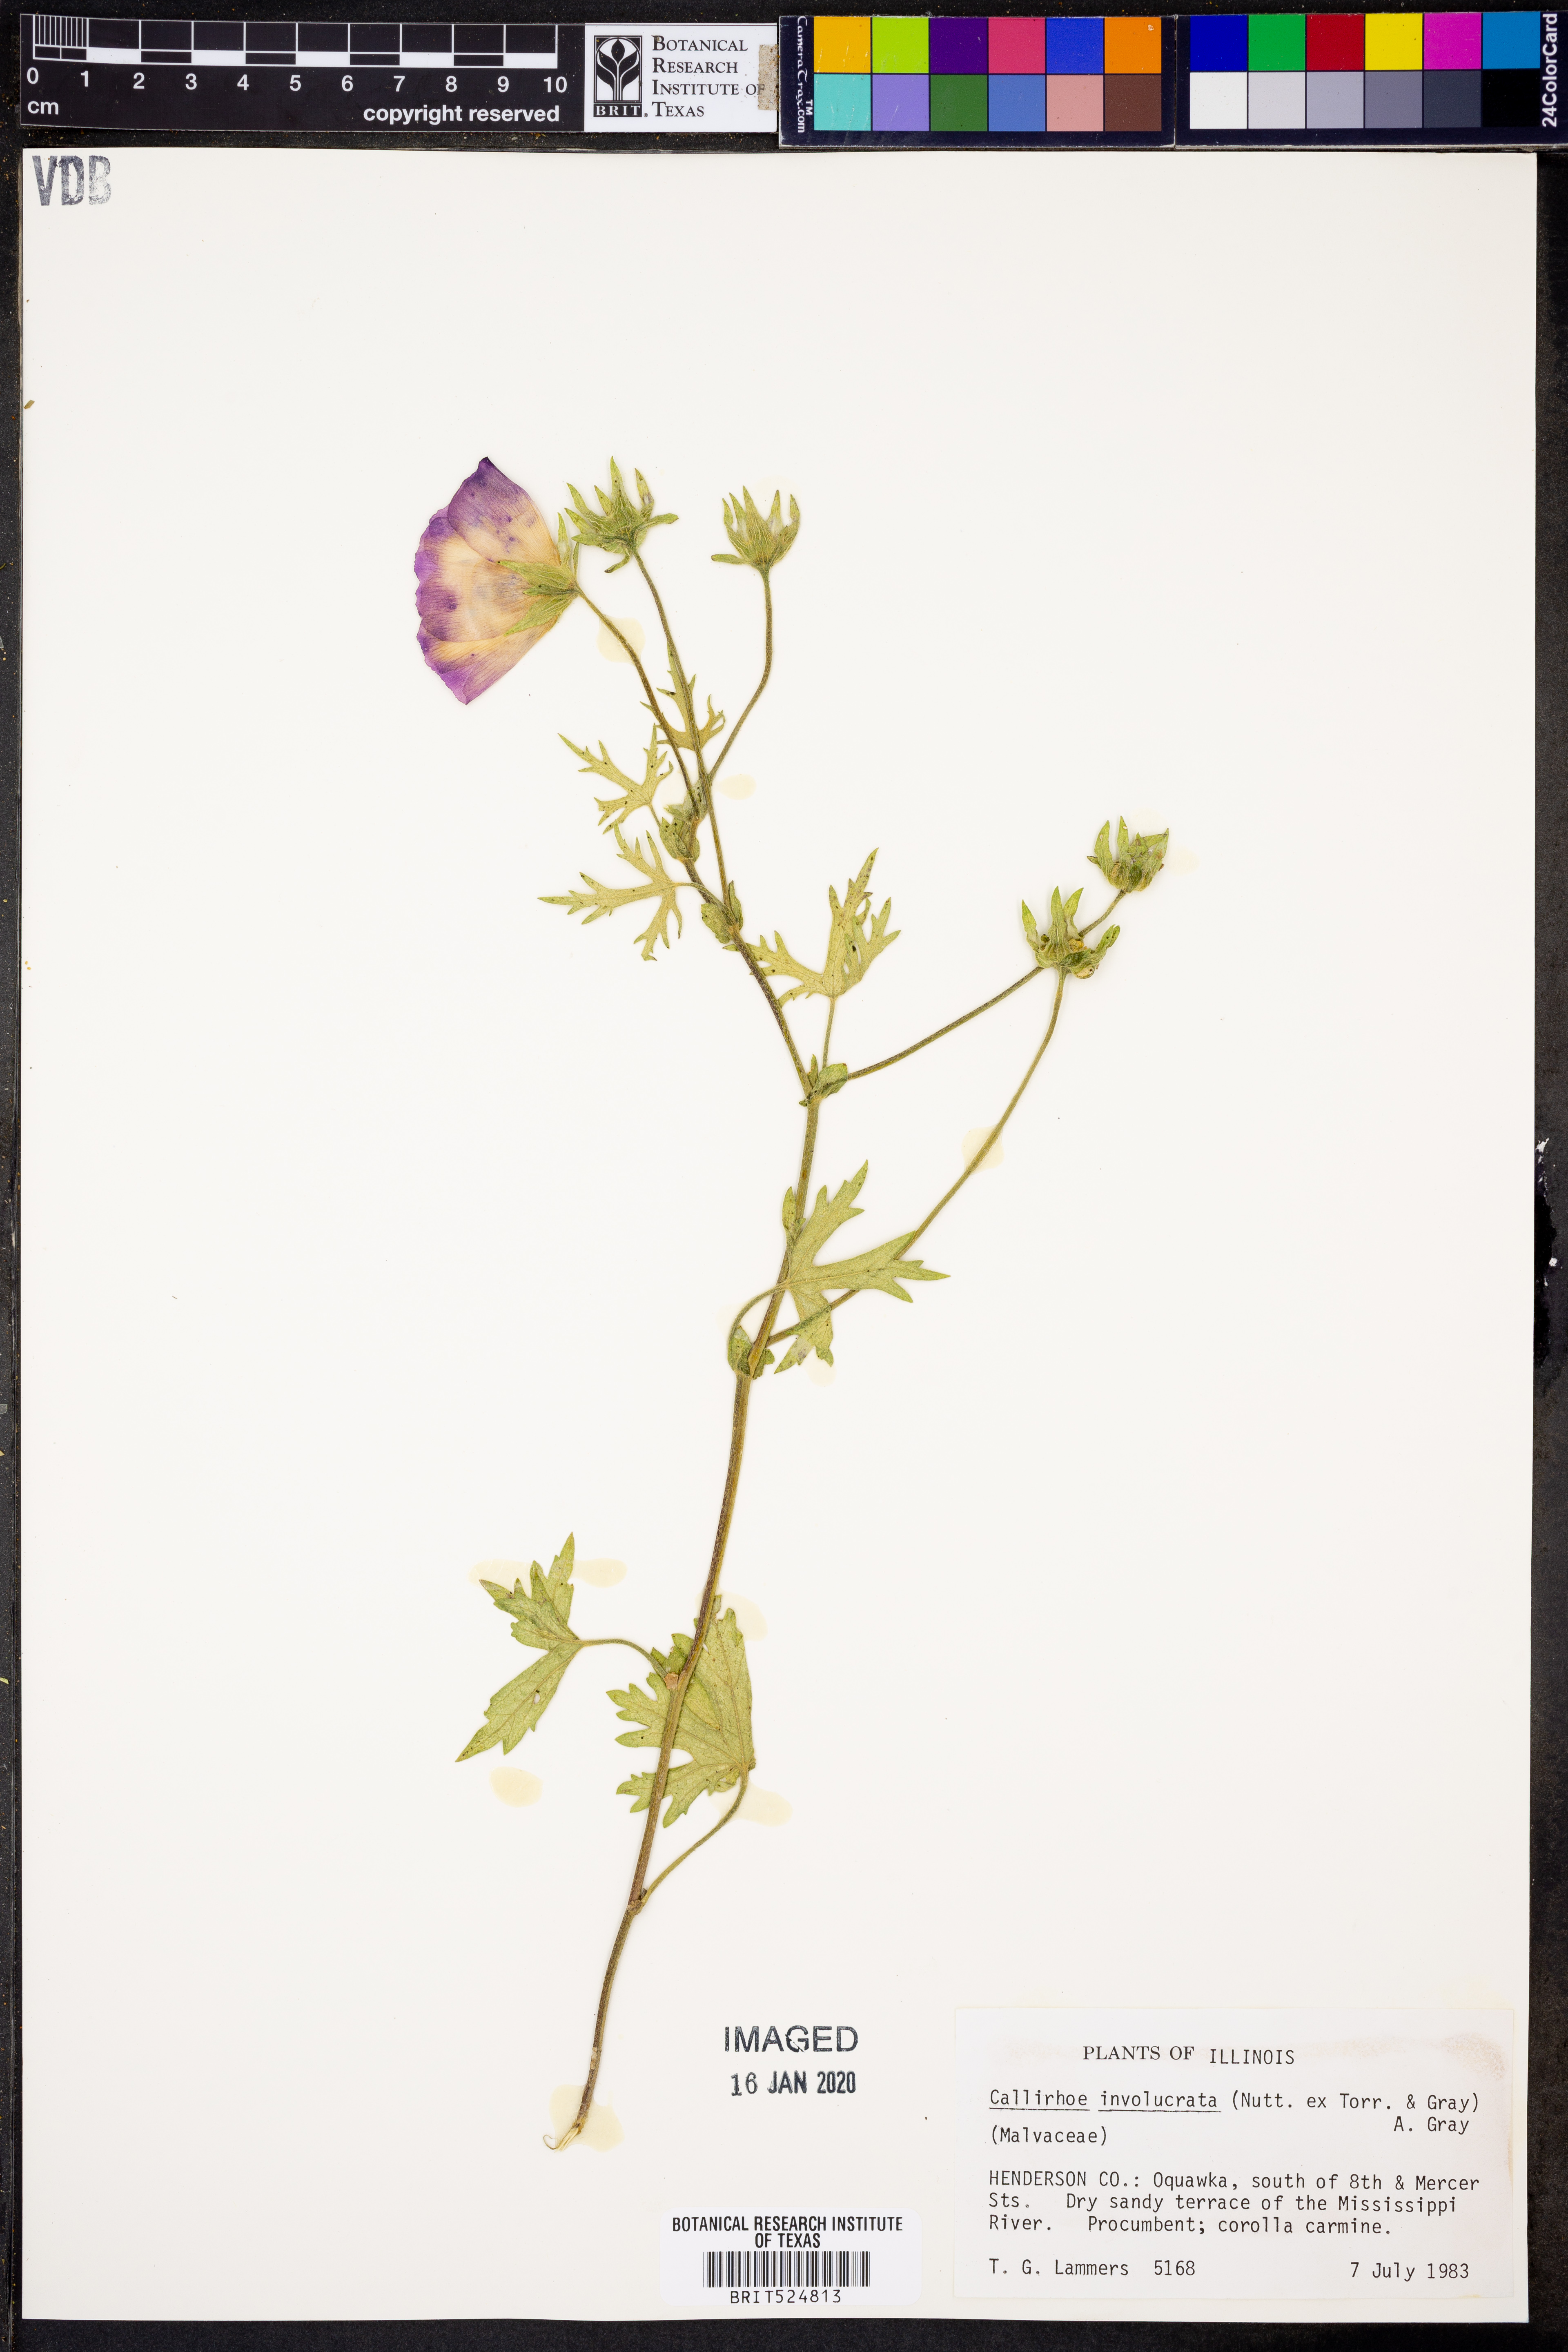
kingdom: Plantae
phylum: Tracheophyta
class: Magnoliopsida
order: Malvales
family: Malvaceae
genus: Callirhoe
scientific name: Callirhoe involucrata
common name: Purple poppy-mallow
